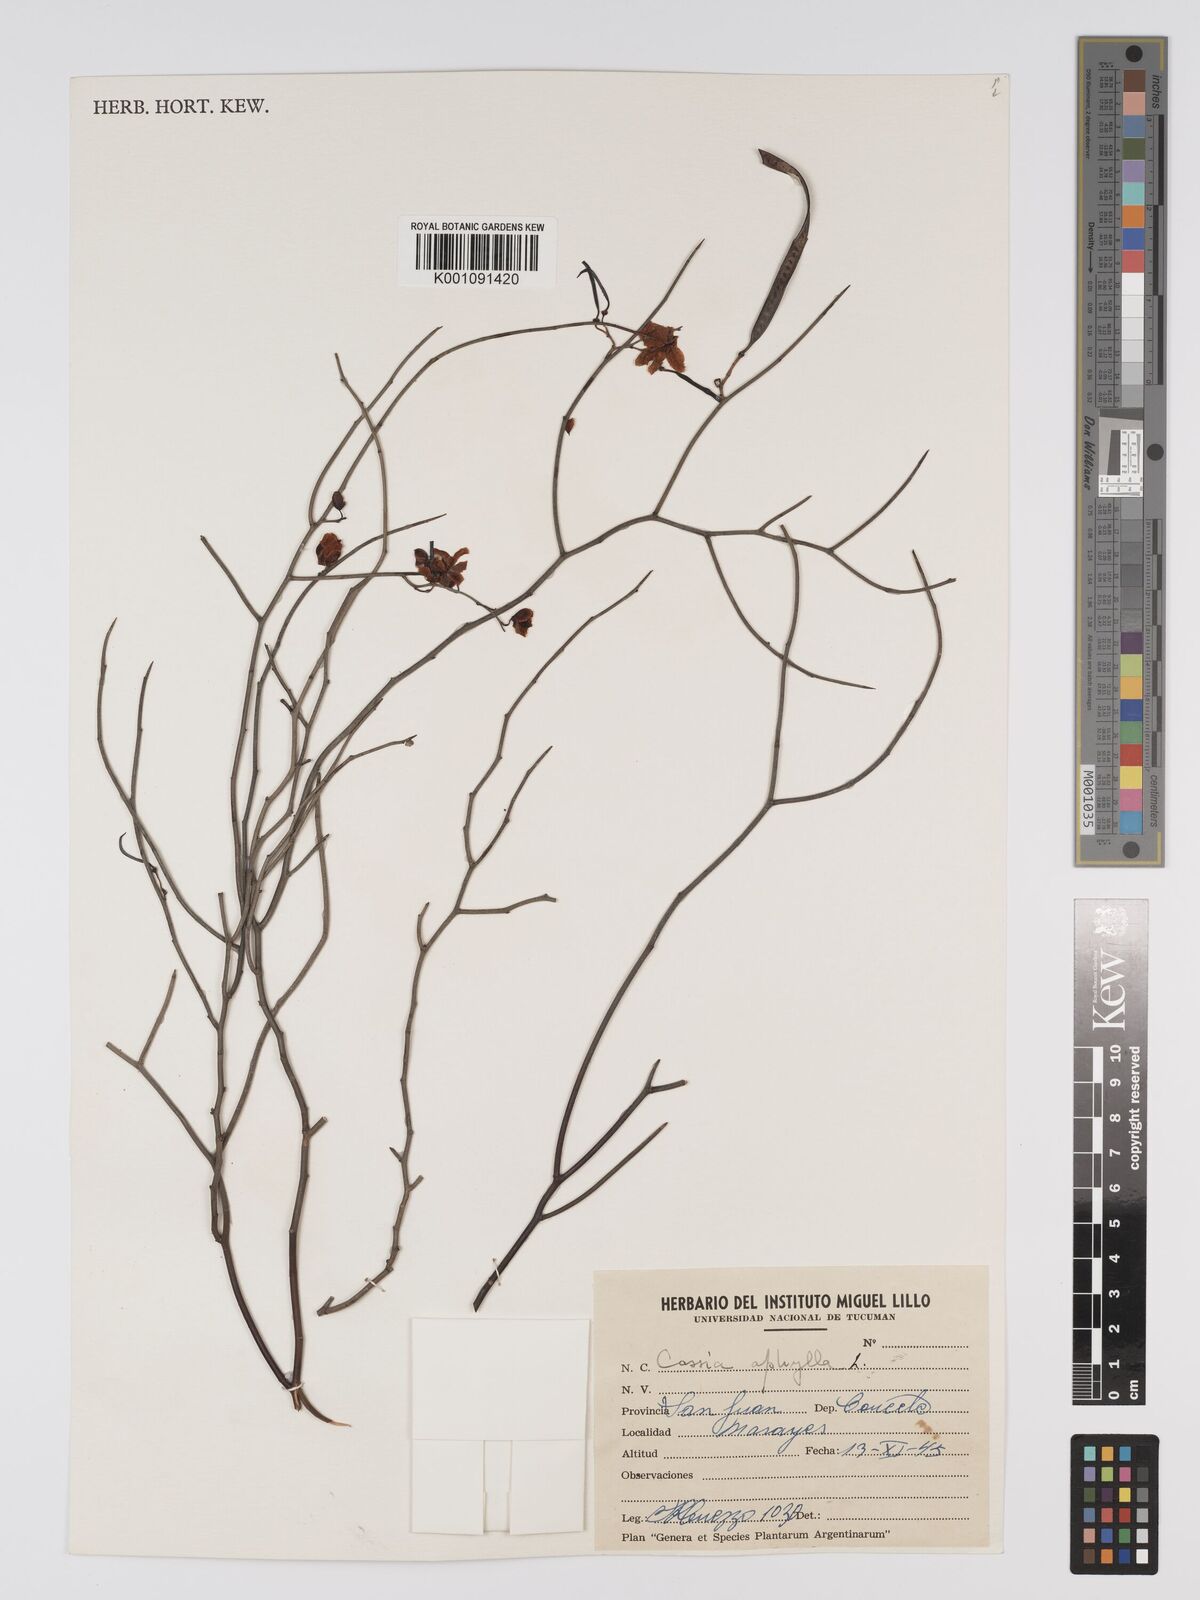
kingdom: Plantae
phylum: Tracheophyta
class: Magnoliopsida
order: Fabales
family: Fabaceae
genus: Senna
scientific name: Senna aphylla
